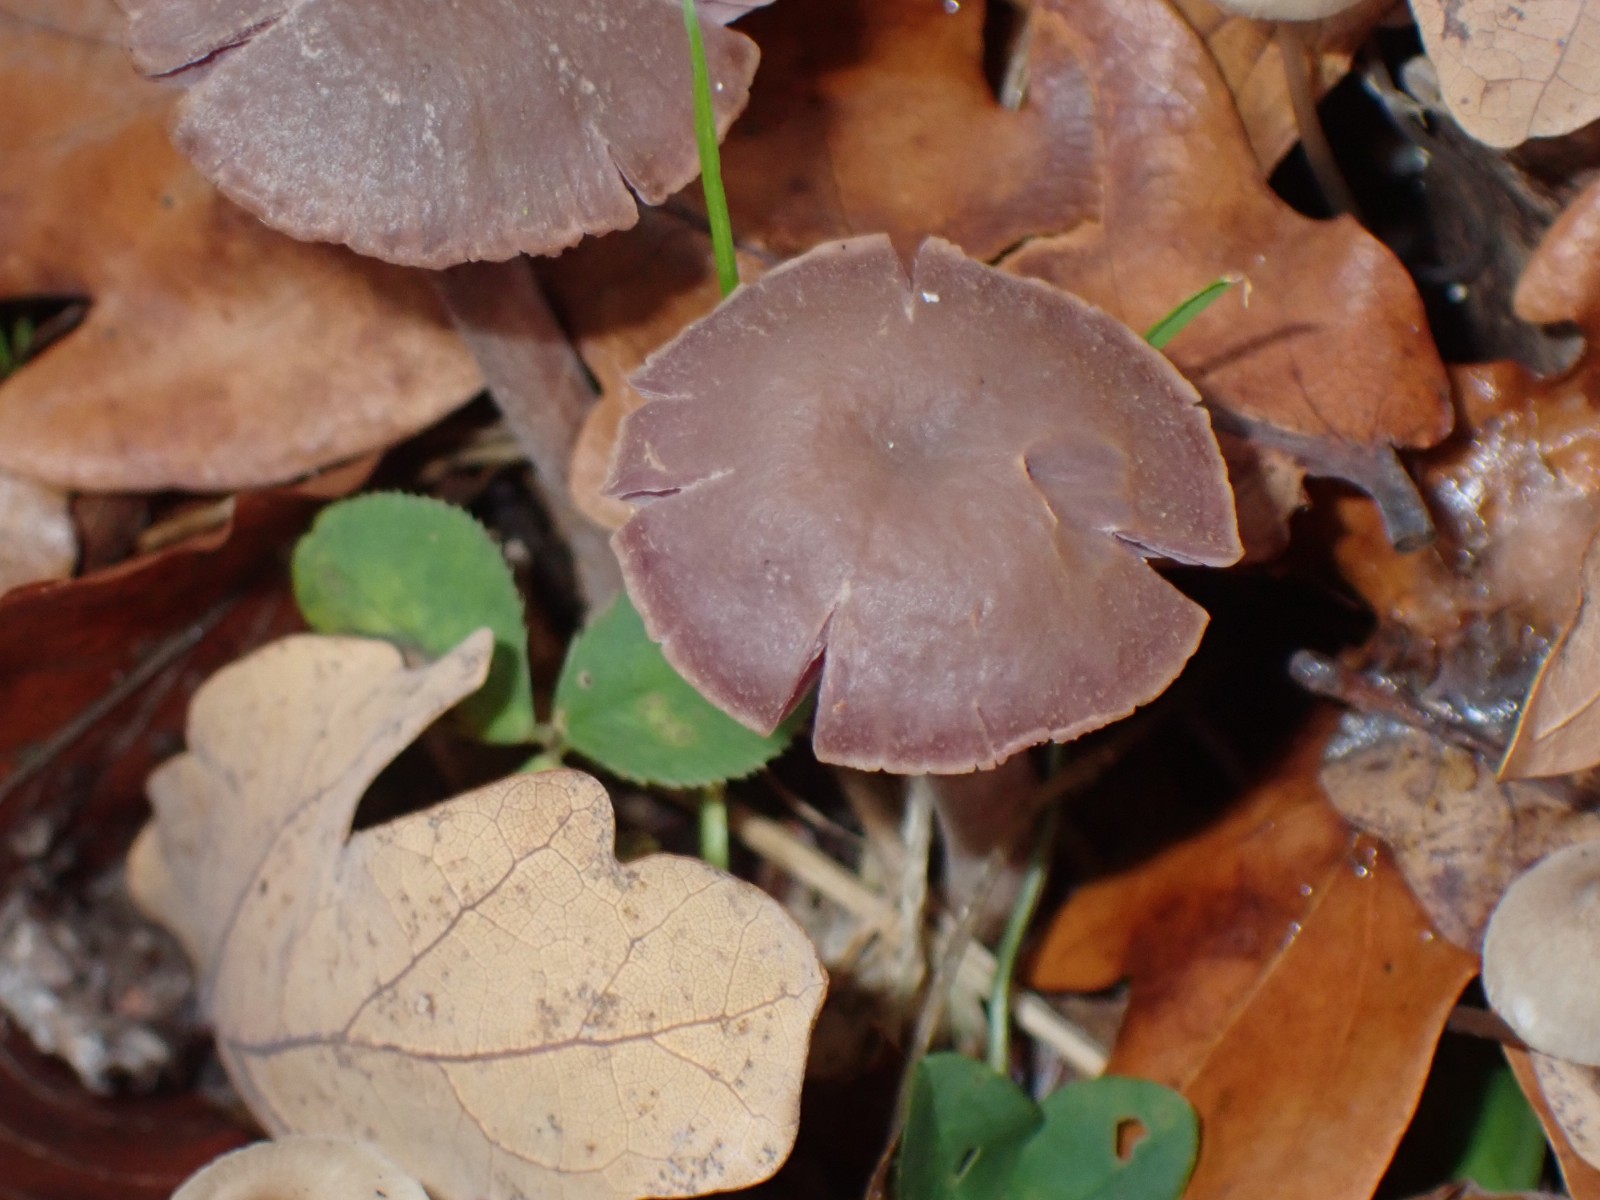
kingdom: Fungi
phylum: Basidiomycota
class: Agaricomycetes
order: Agaricales
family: Hydnangiaceae
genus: Laccaria
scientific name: Laccaria amethystina
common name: violet ametysthat
